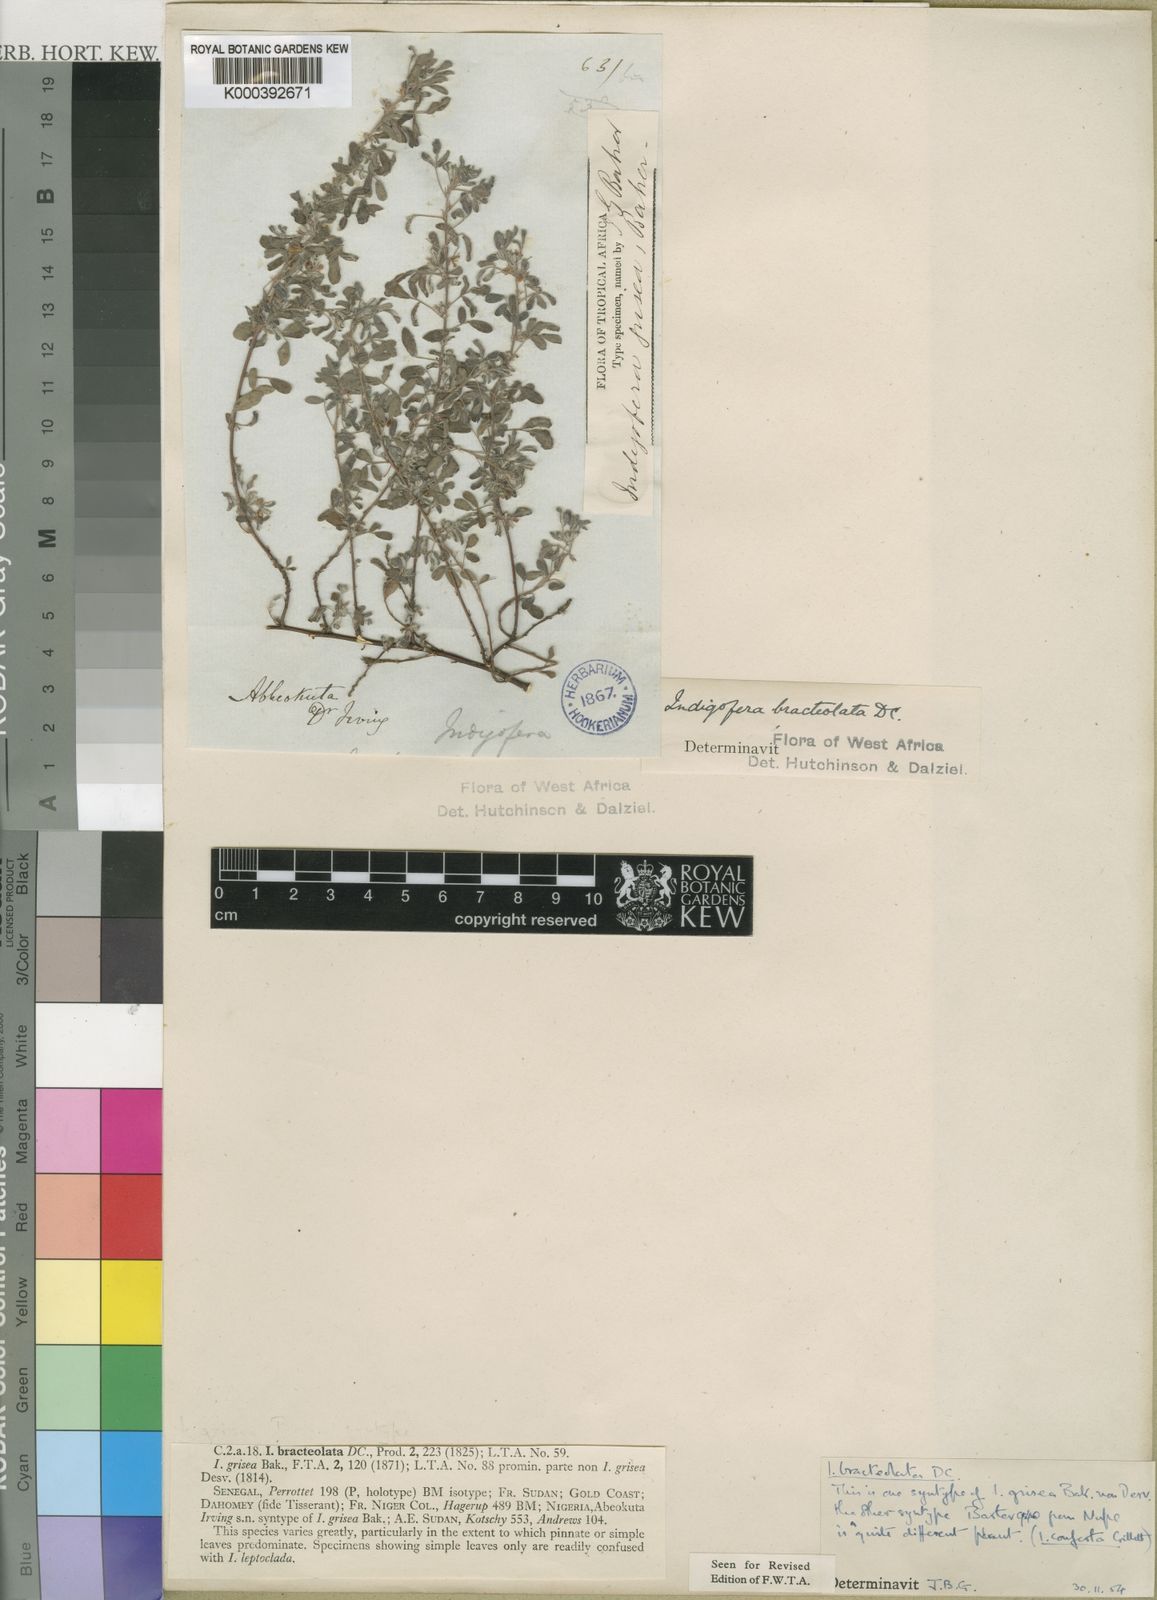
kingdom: Plantae
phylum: Tracheophyta
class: Magnoliopsida
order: Fabales
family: Fabaceae
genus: Indigofera
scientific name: Indigofera
